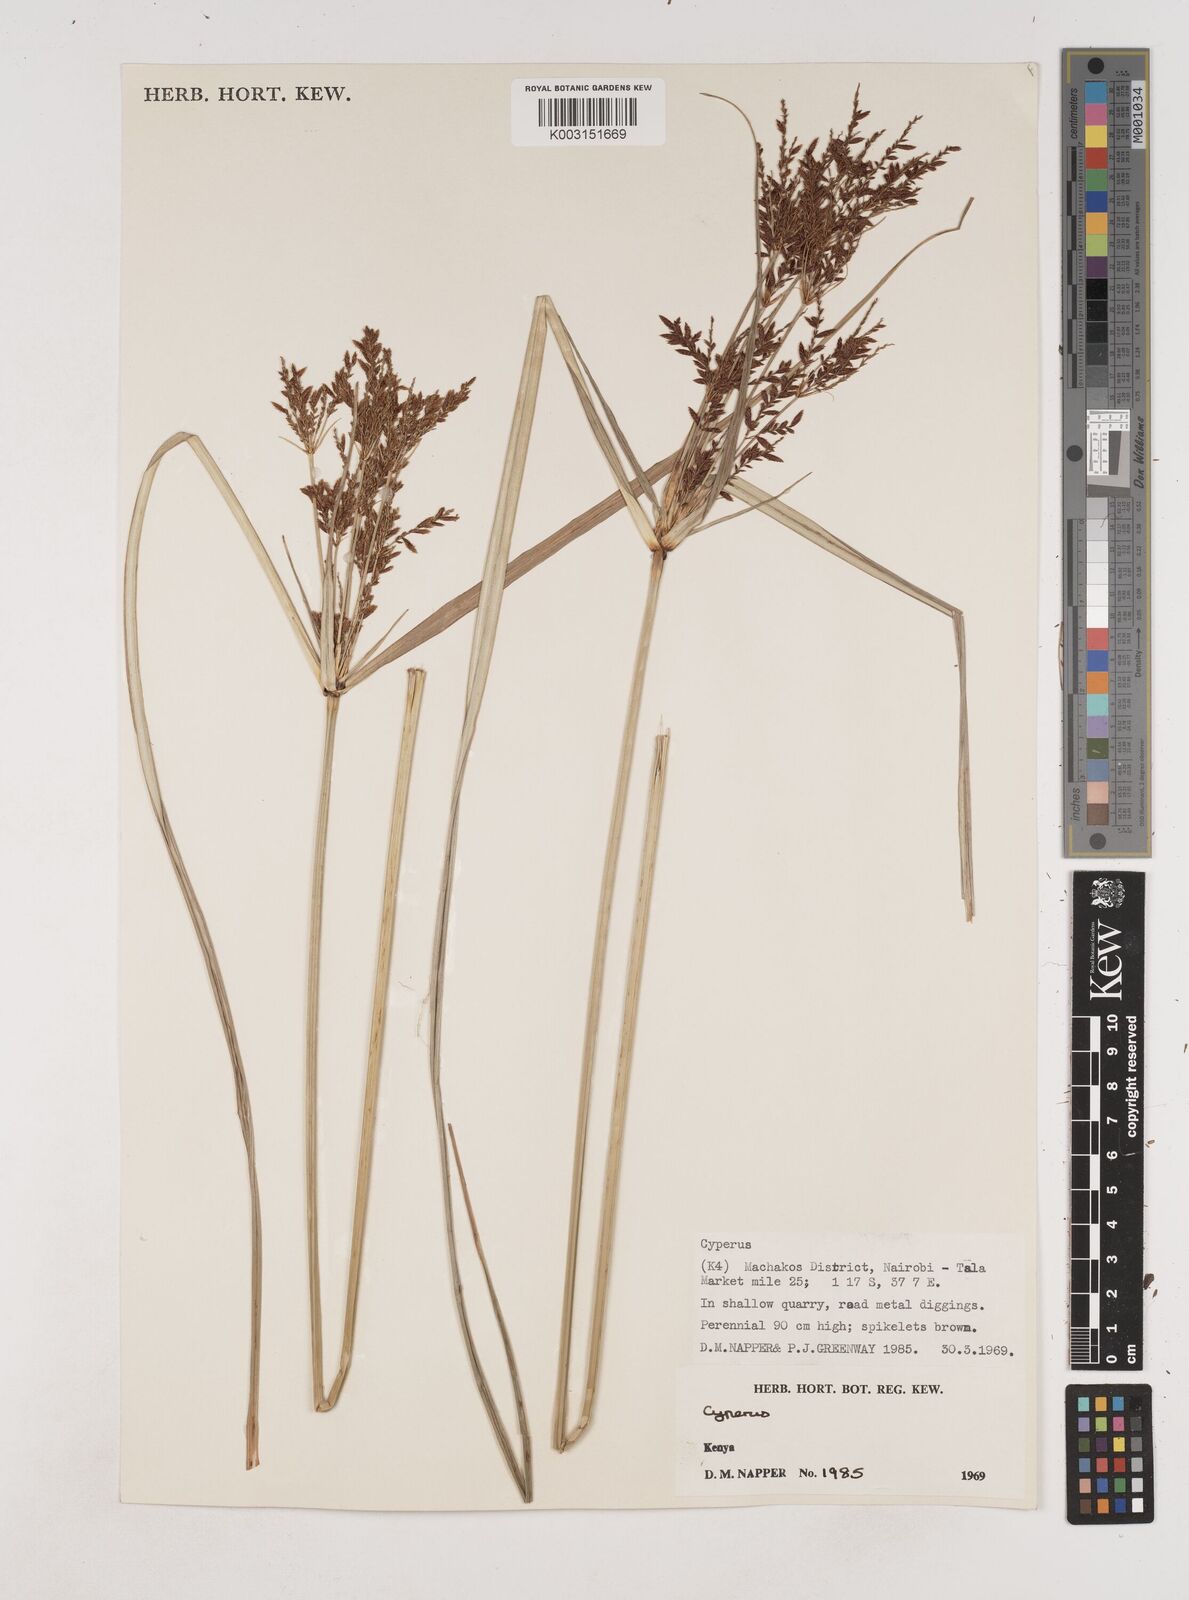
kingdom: Plantae
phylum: Tracheophyta
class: Liliopsida
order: Poales
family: Cyperaceae
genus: Cyperus
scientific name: Cyperus exaltatus
